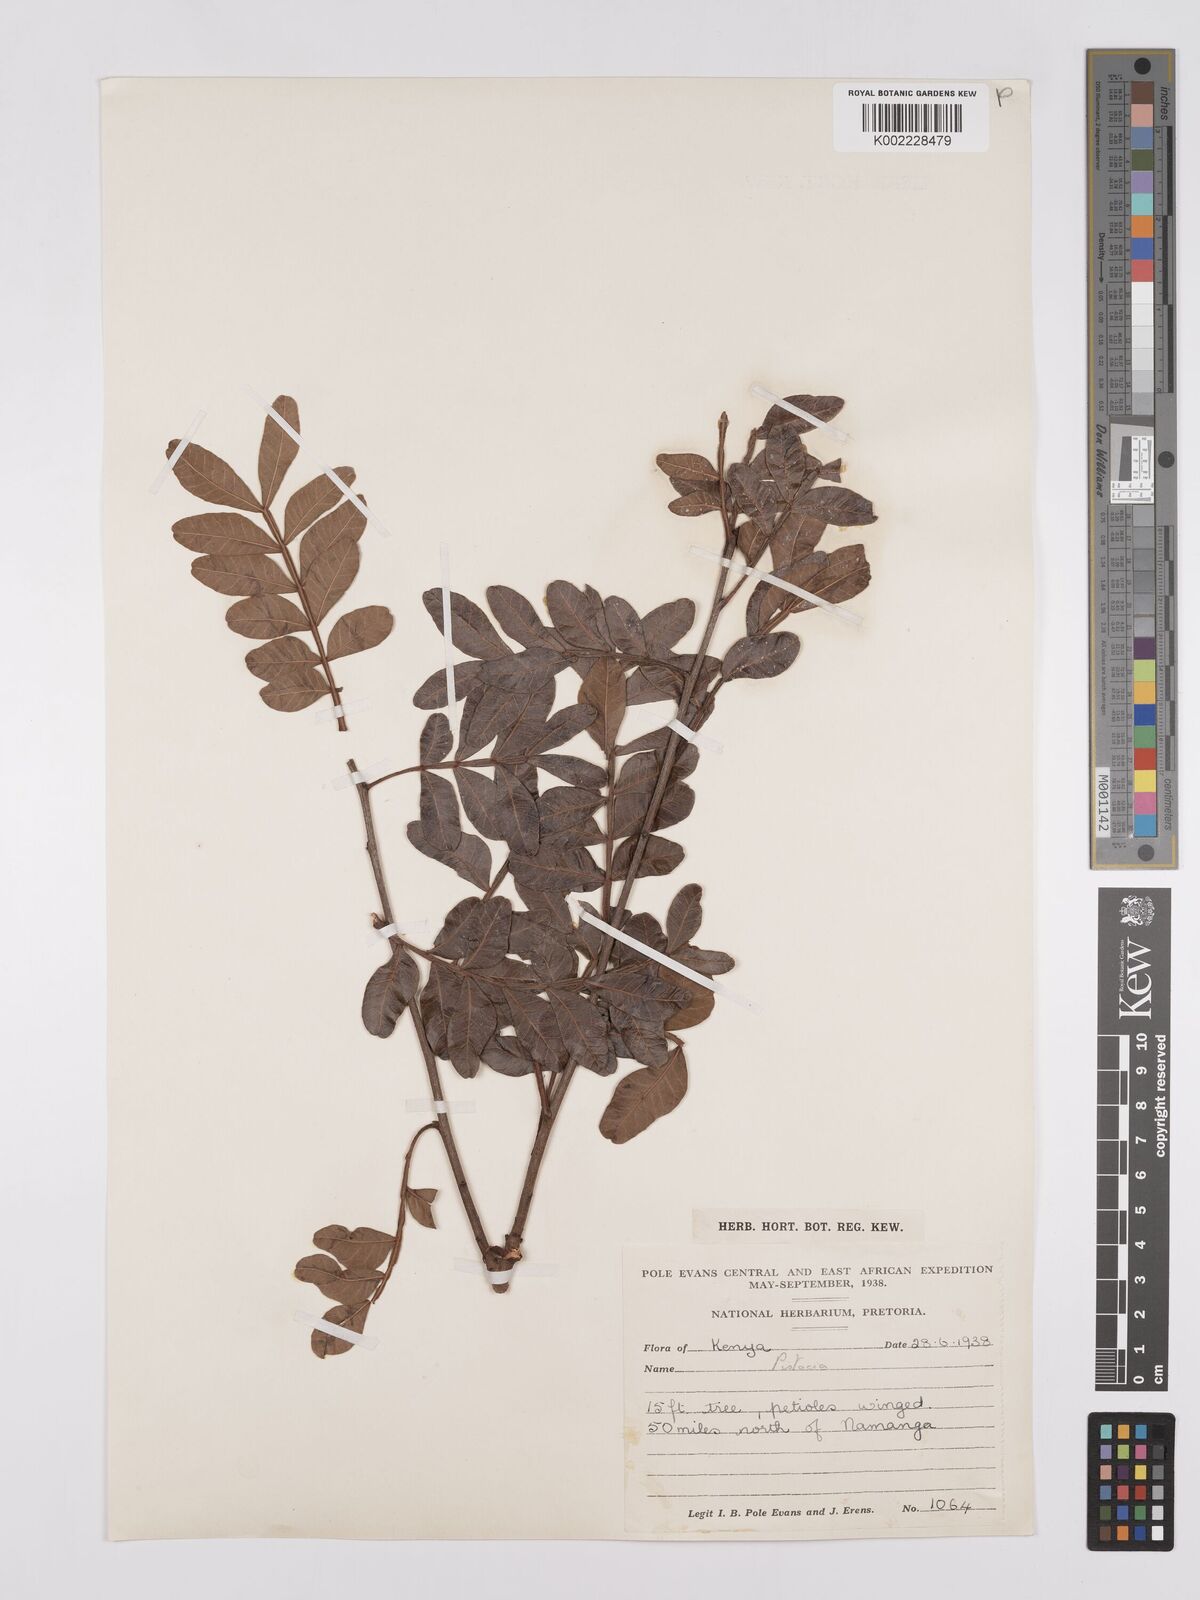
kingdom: Plantae
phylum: Tracheophyta
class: Magnoliopsida
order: Sapindales
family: Anacardiaceae
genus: Pistacia
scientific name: Pistacia lentiscus
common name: Lentisk
